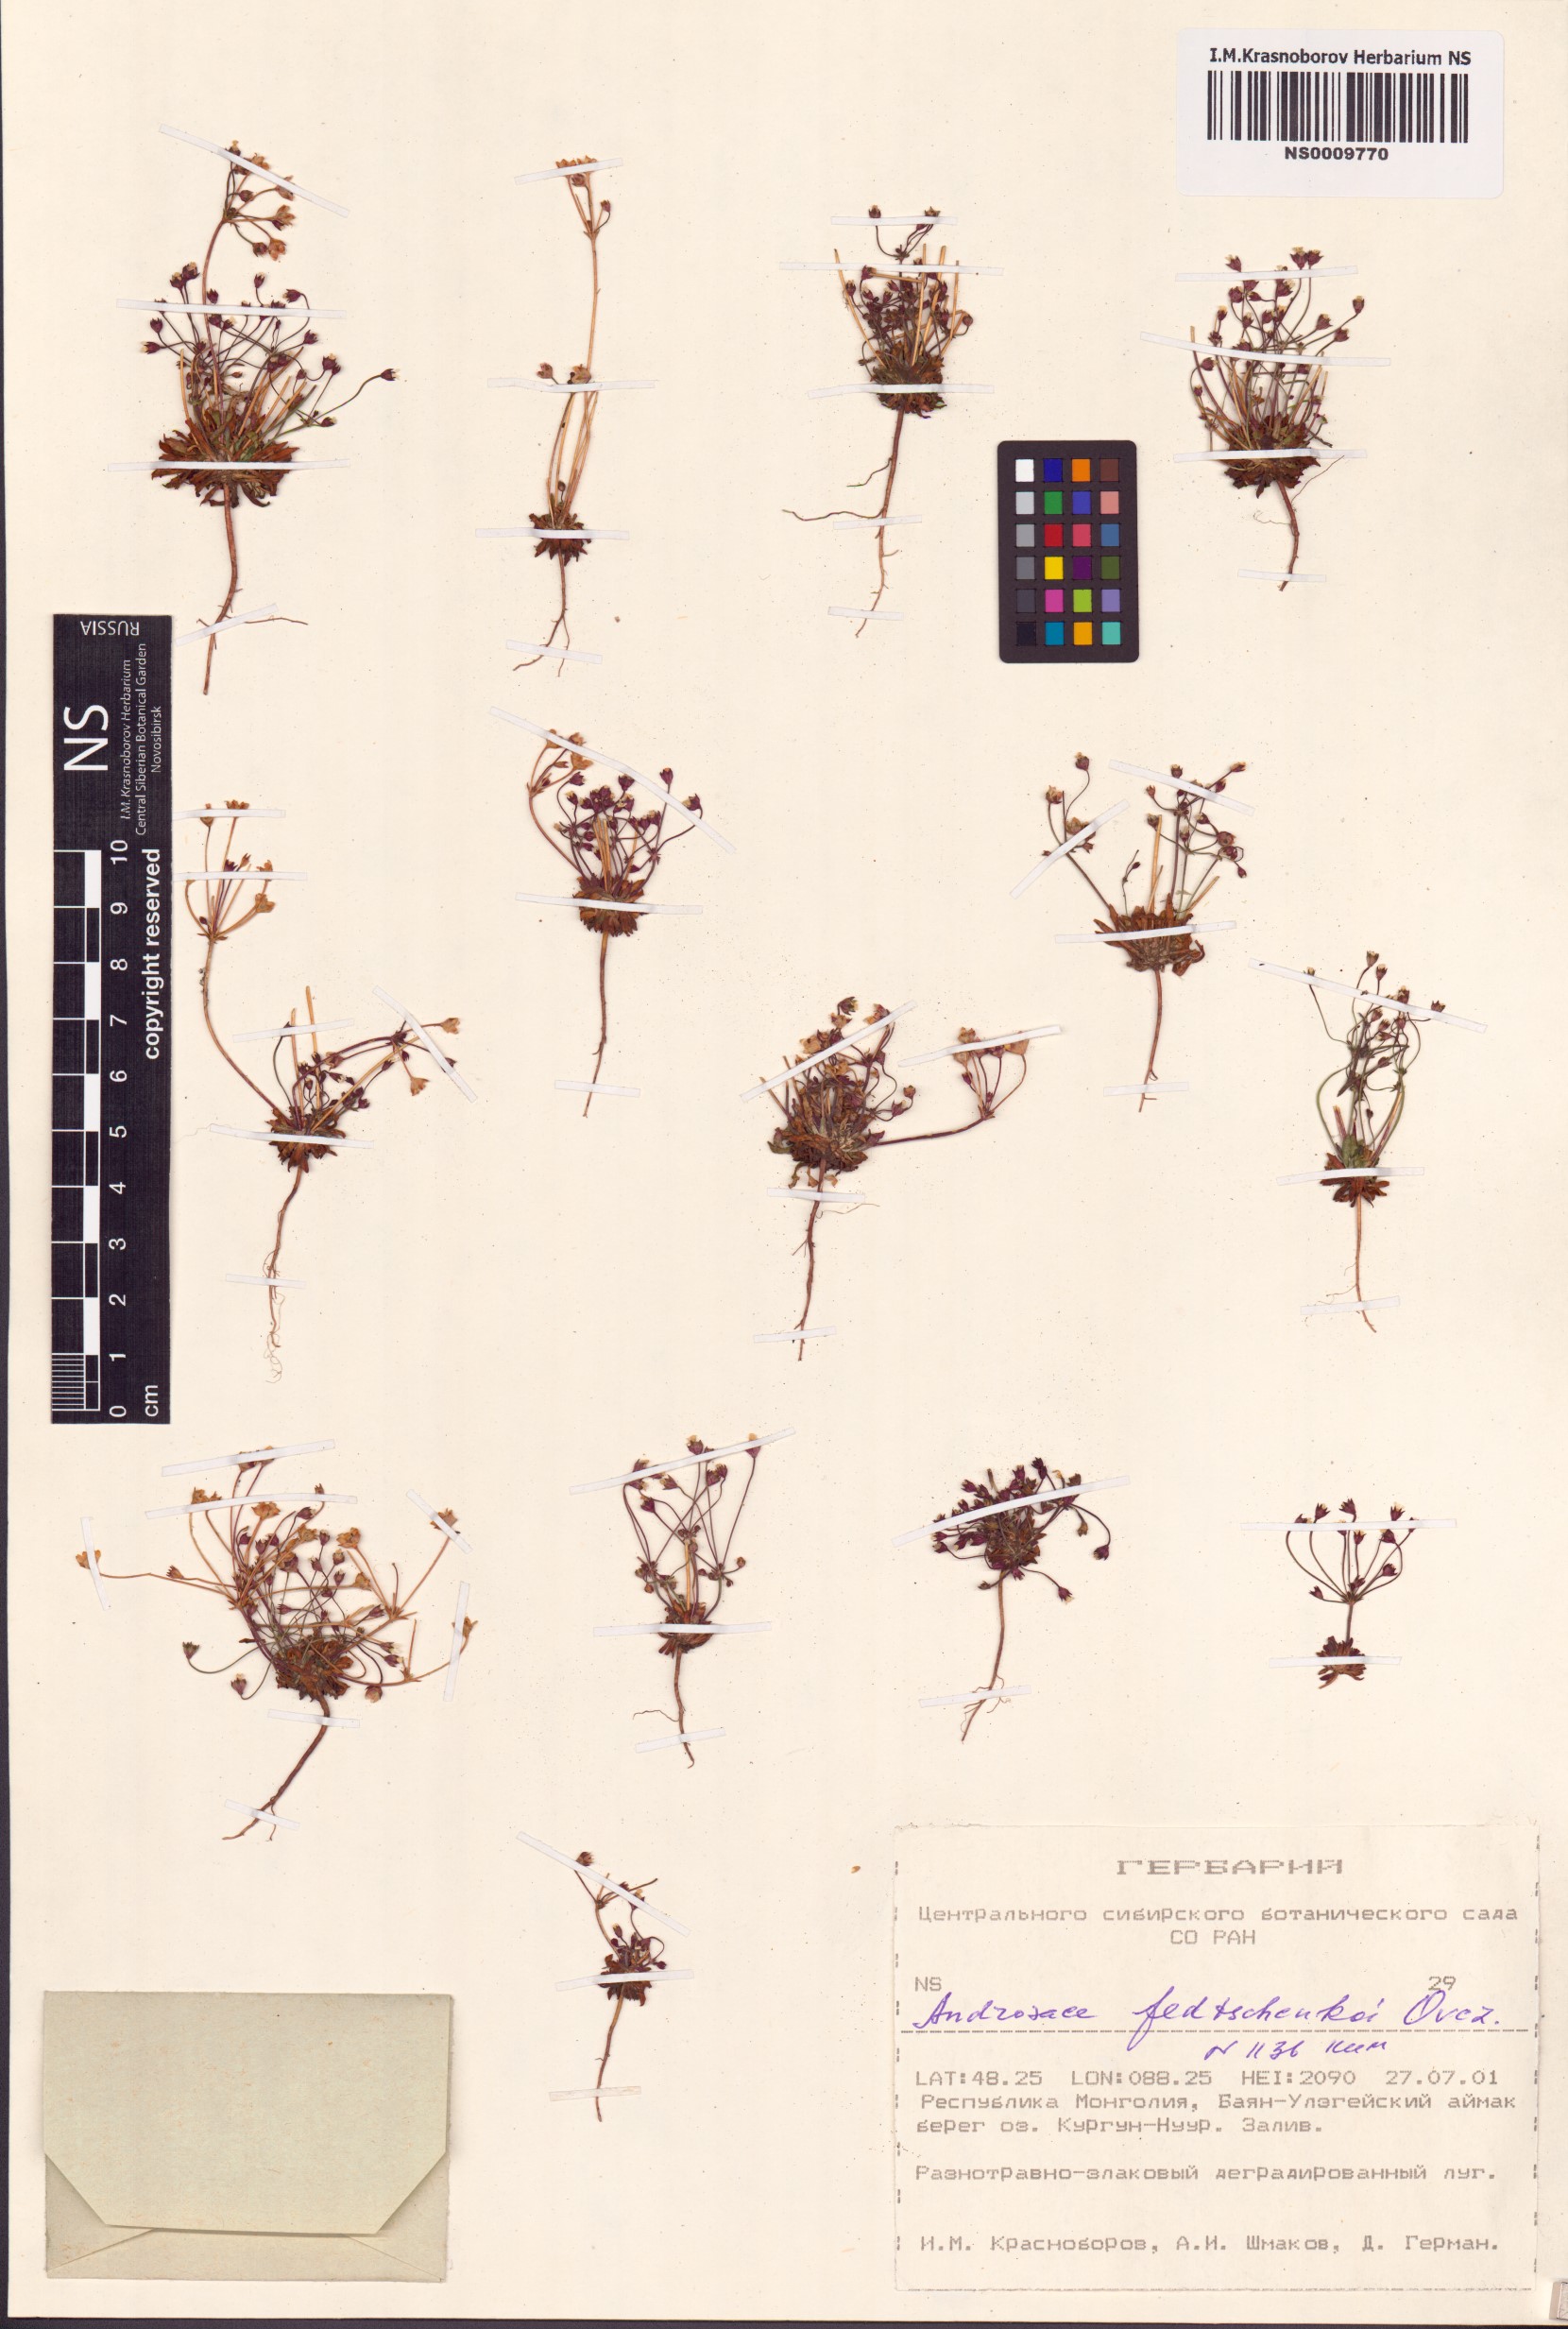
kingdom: Plantae
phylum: Tracheophyta
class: Magnoliopsida
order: Ericales
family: Primulaceae
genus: Androsace
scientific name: Androsace fedtschenkoi
